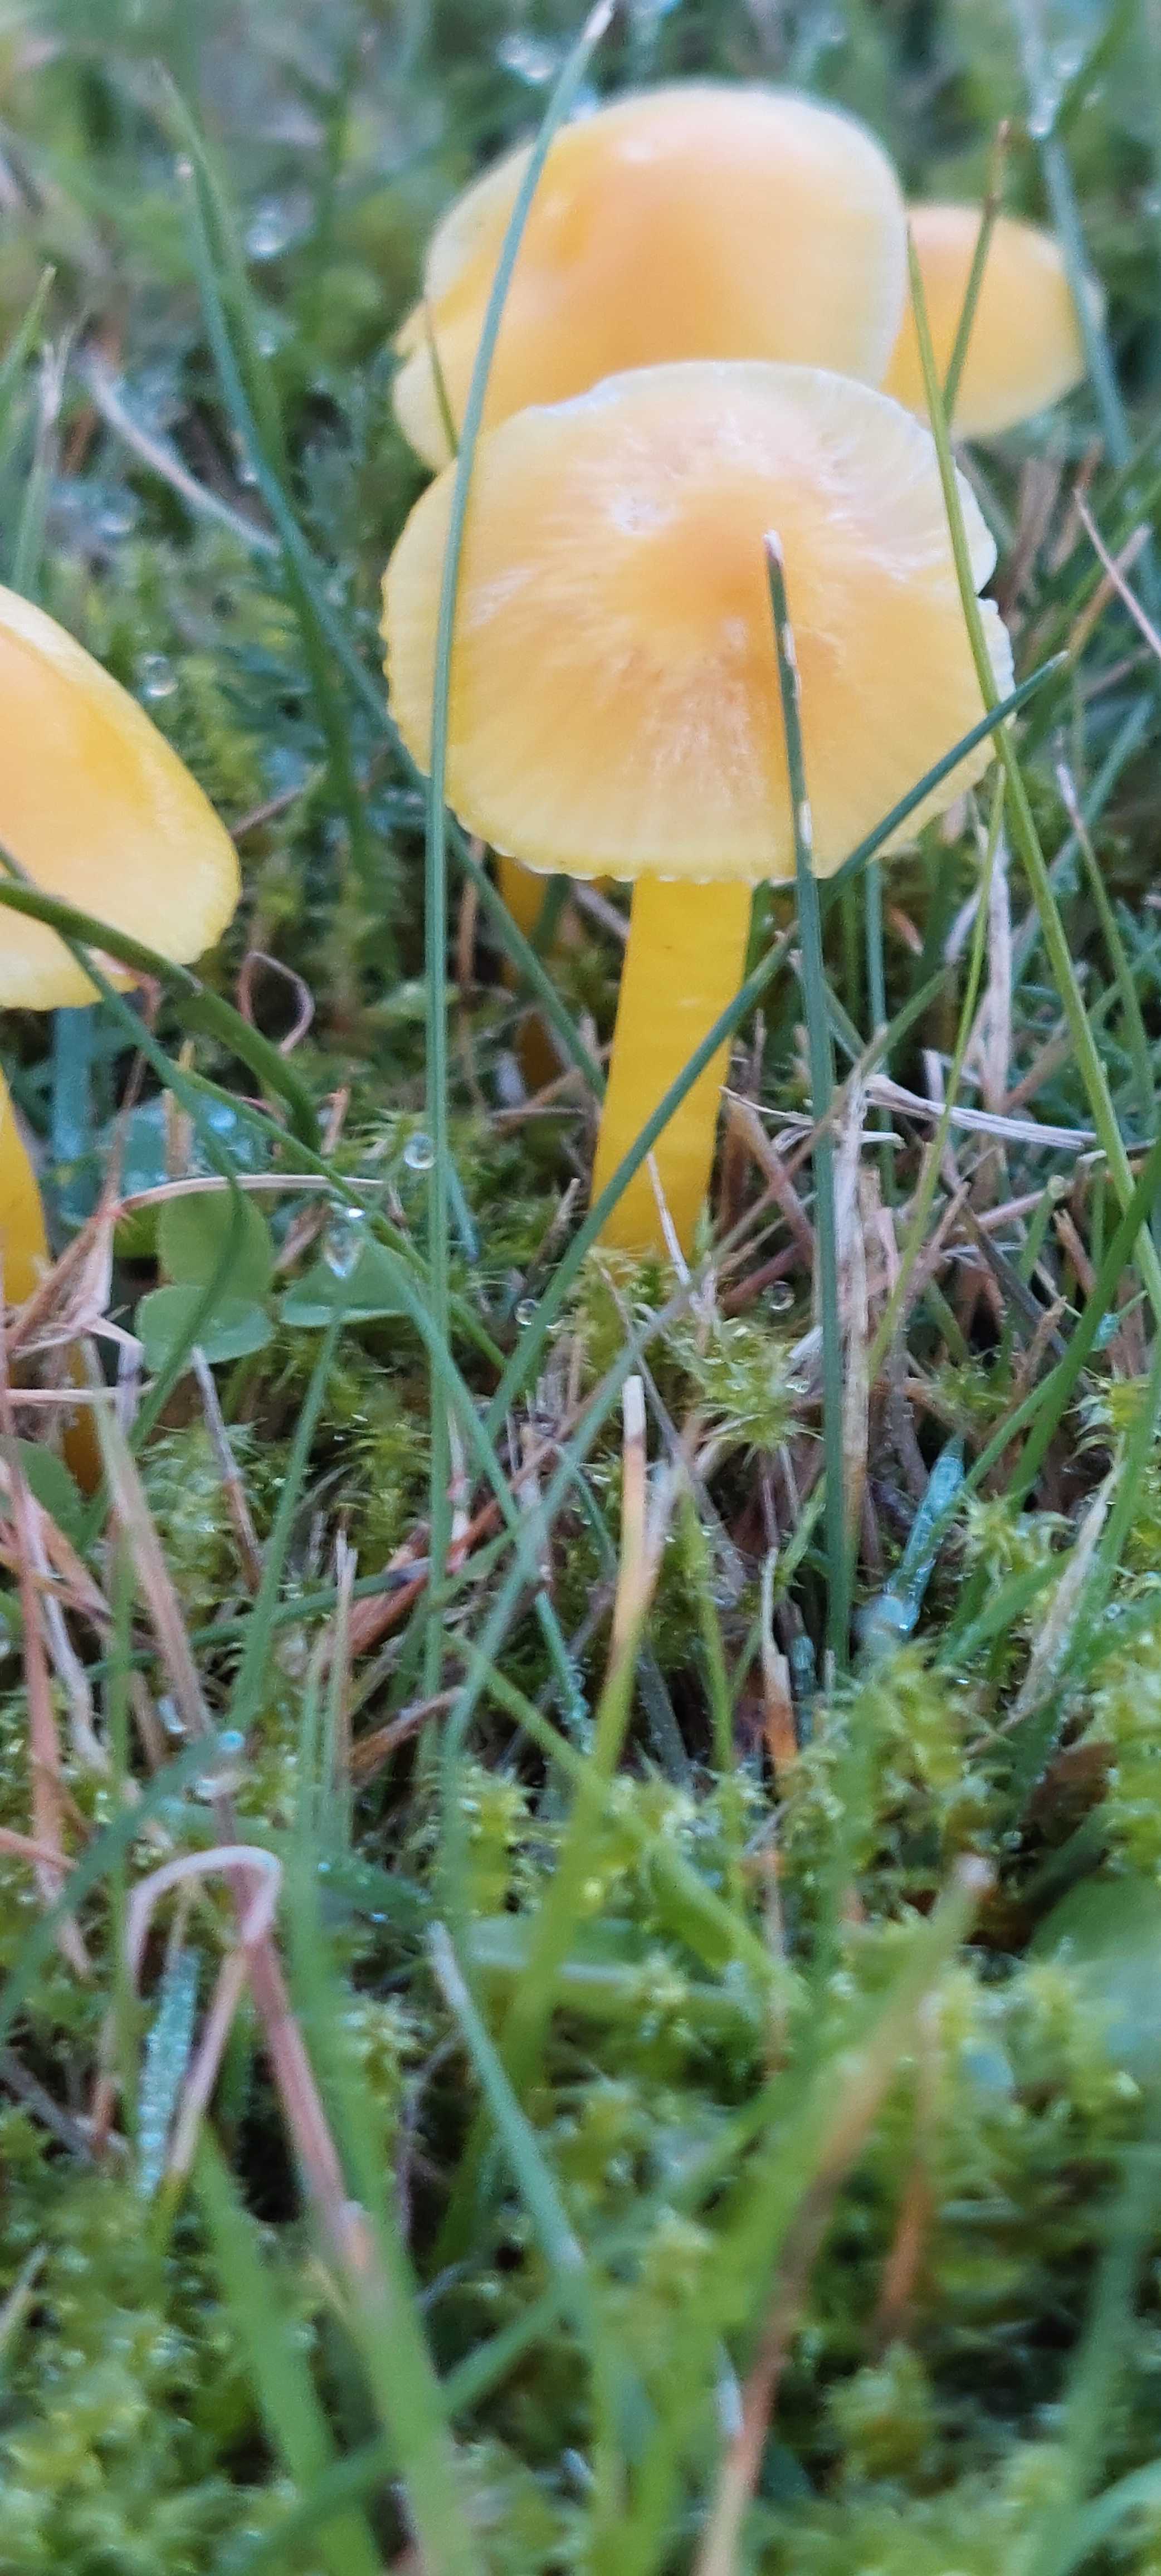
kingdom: Fungi
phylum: Basidiomycota
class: Agaricomycetes
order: Agaricales
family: Hygrophoraceae
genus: Hygrocybe
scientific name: Hygrocybe
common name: vokshat
